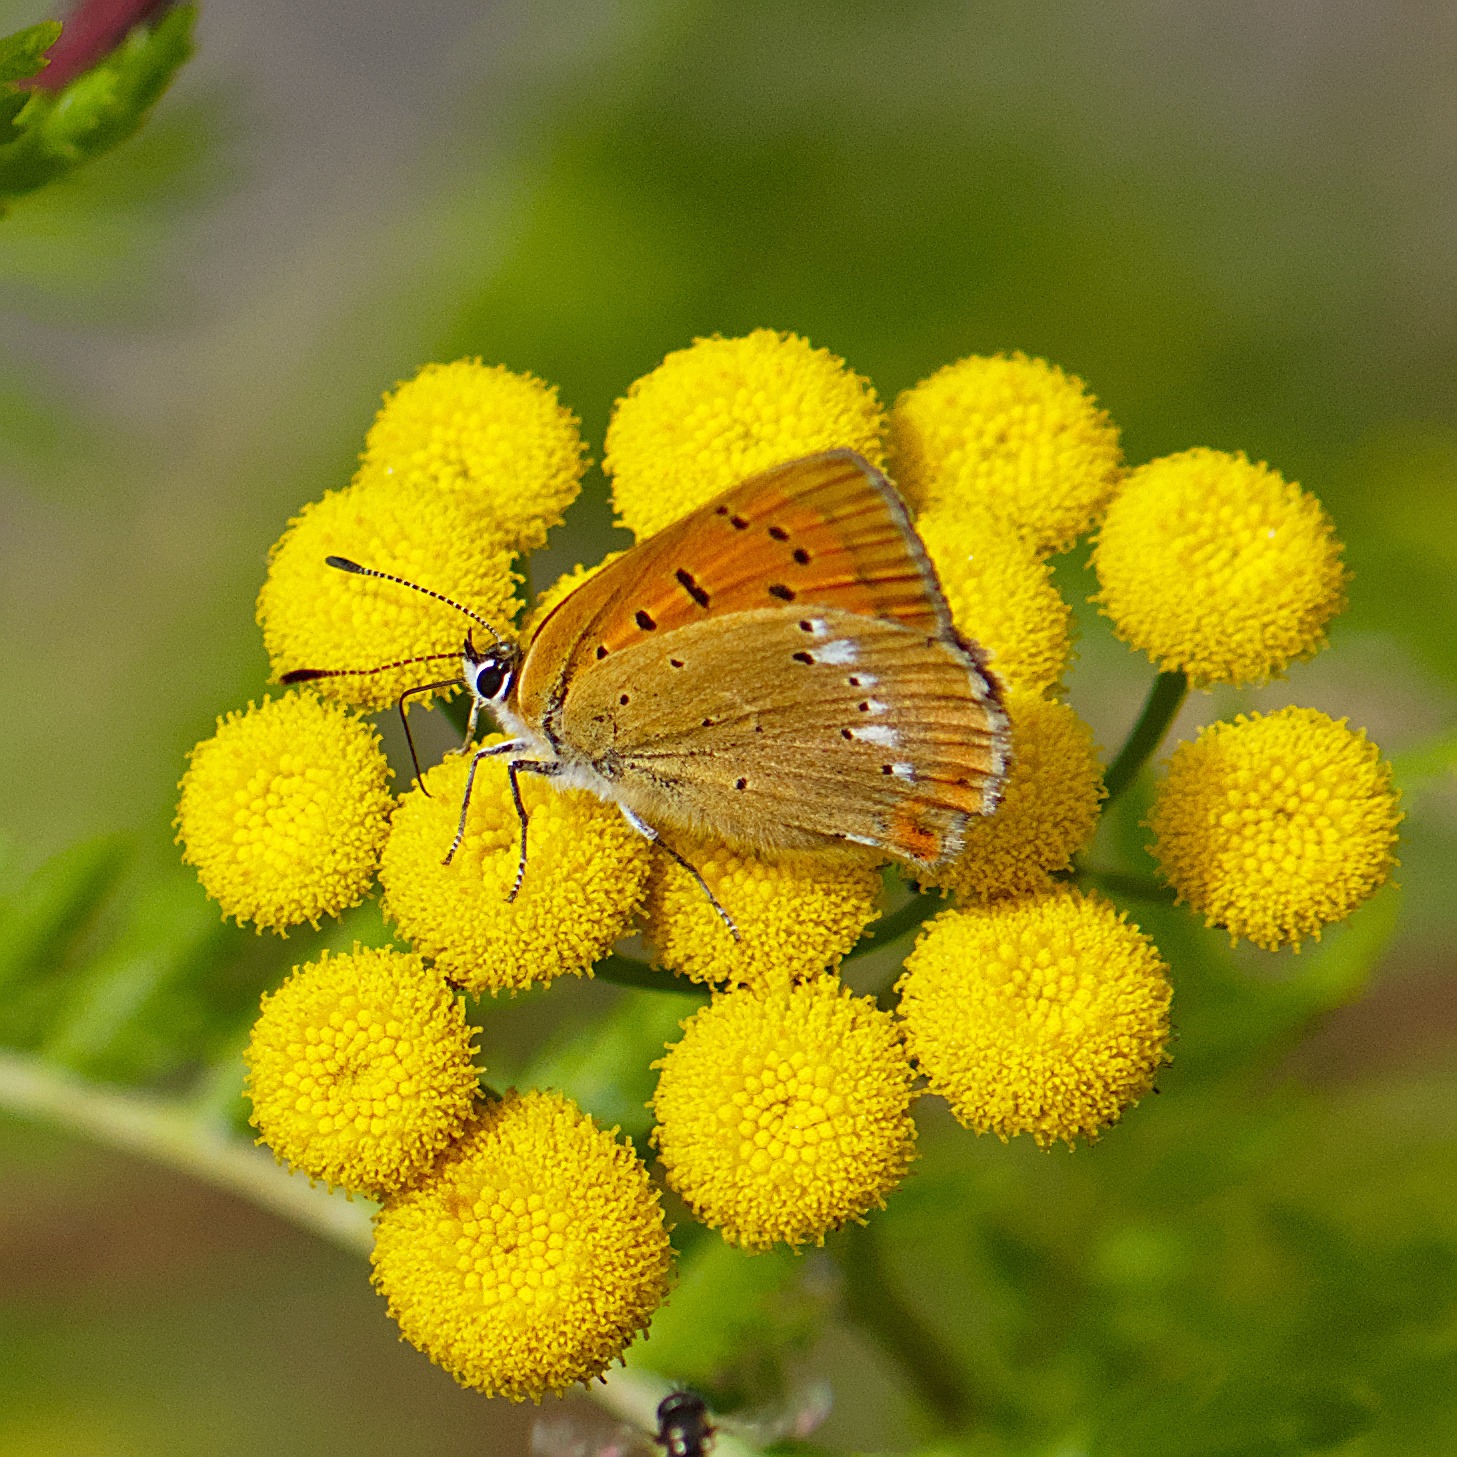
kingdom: Animalia
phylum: Arthropoda
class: Insecta
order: Lepidoptera
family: Lycaenidae
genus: Lycaena
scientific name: Lycaena virgaureae
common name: Dukatsommerfugl
